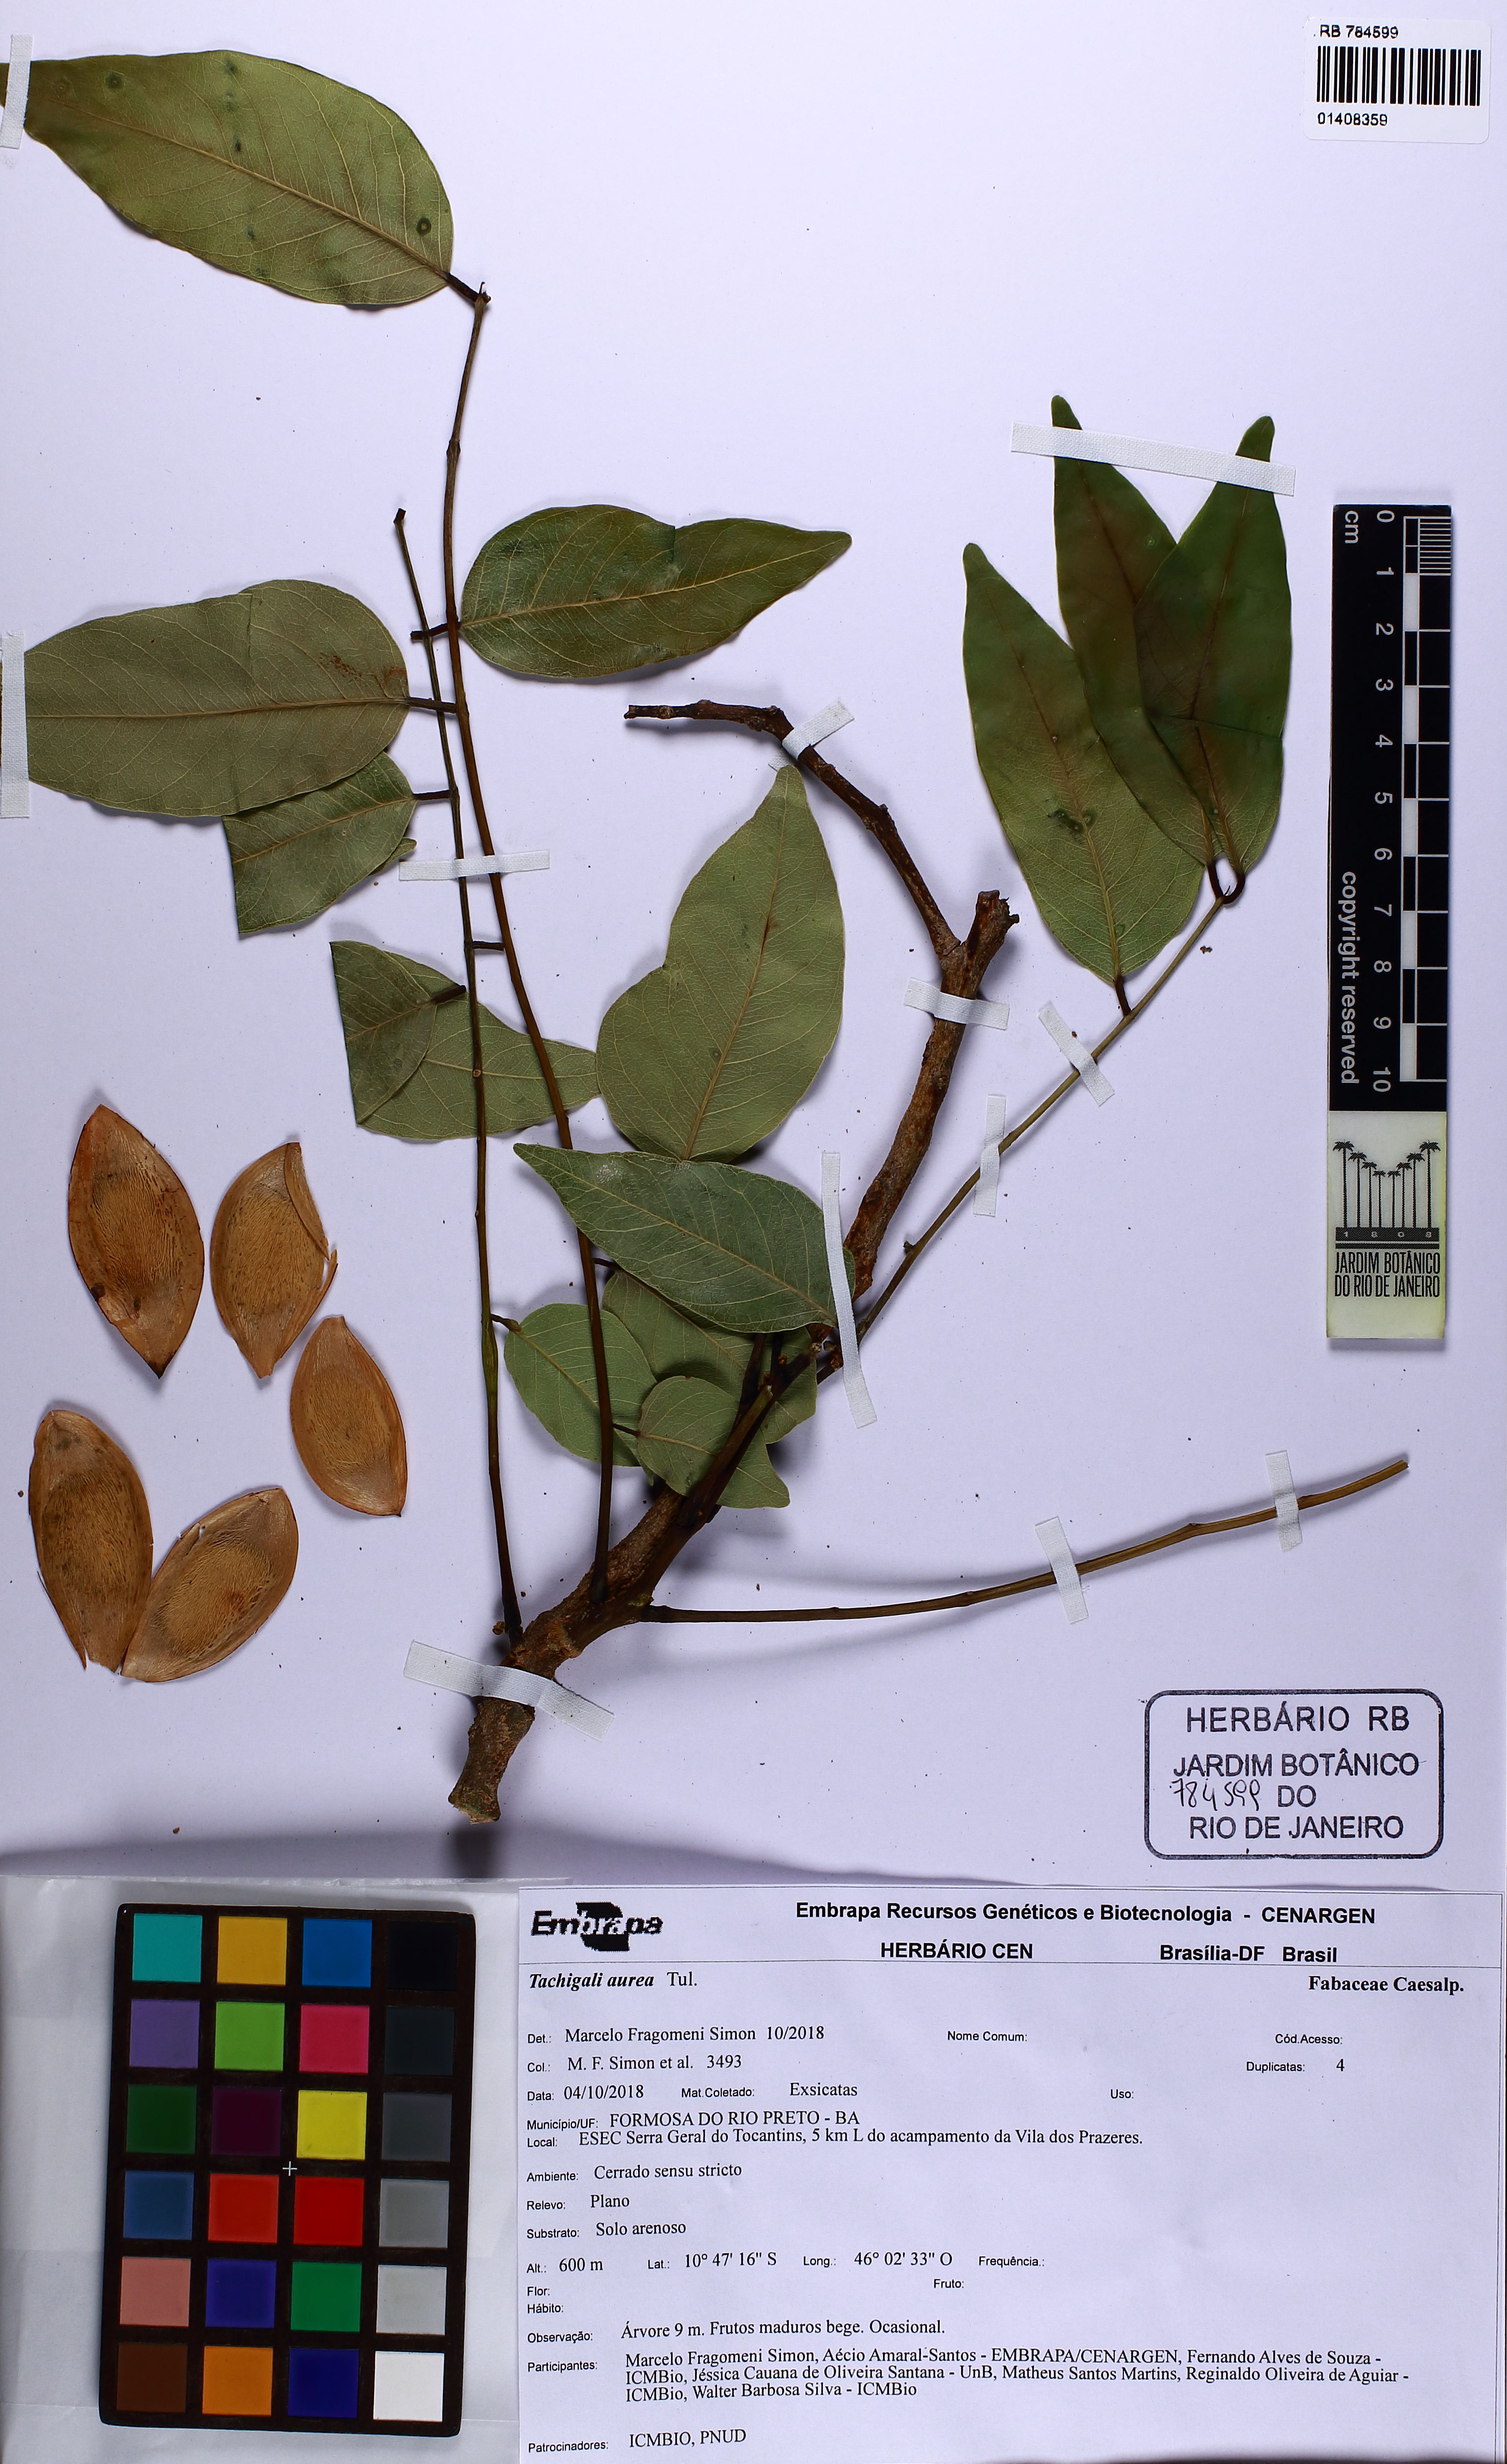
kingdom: Plantae
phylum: Tracheophyta
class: Magnoliopsida
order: Fabales
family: Fabaceae
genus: Tachigali
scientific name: Tachigali aurea
